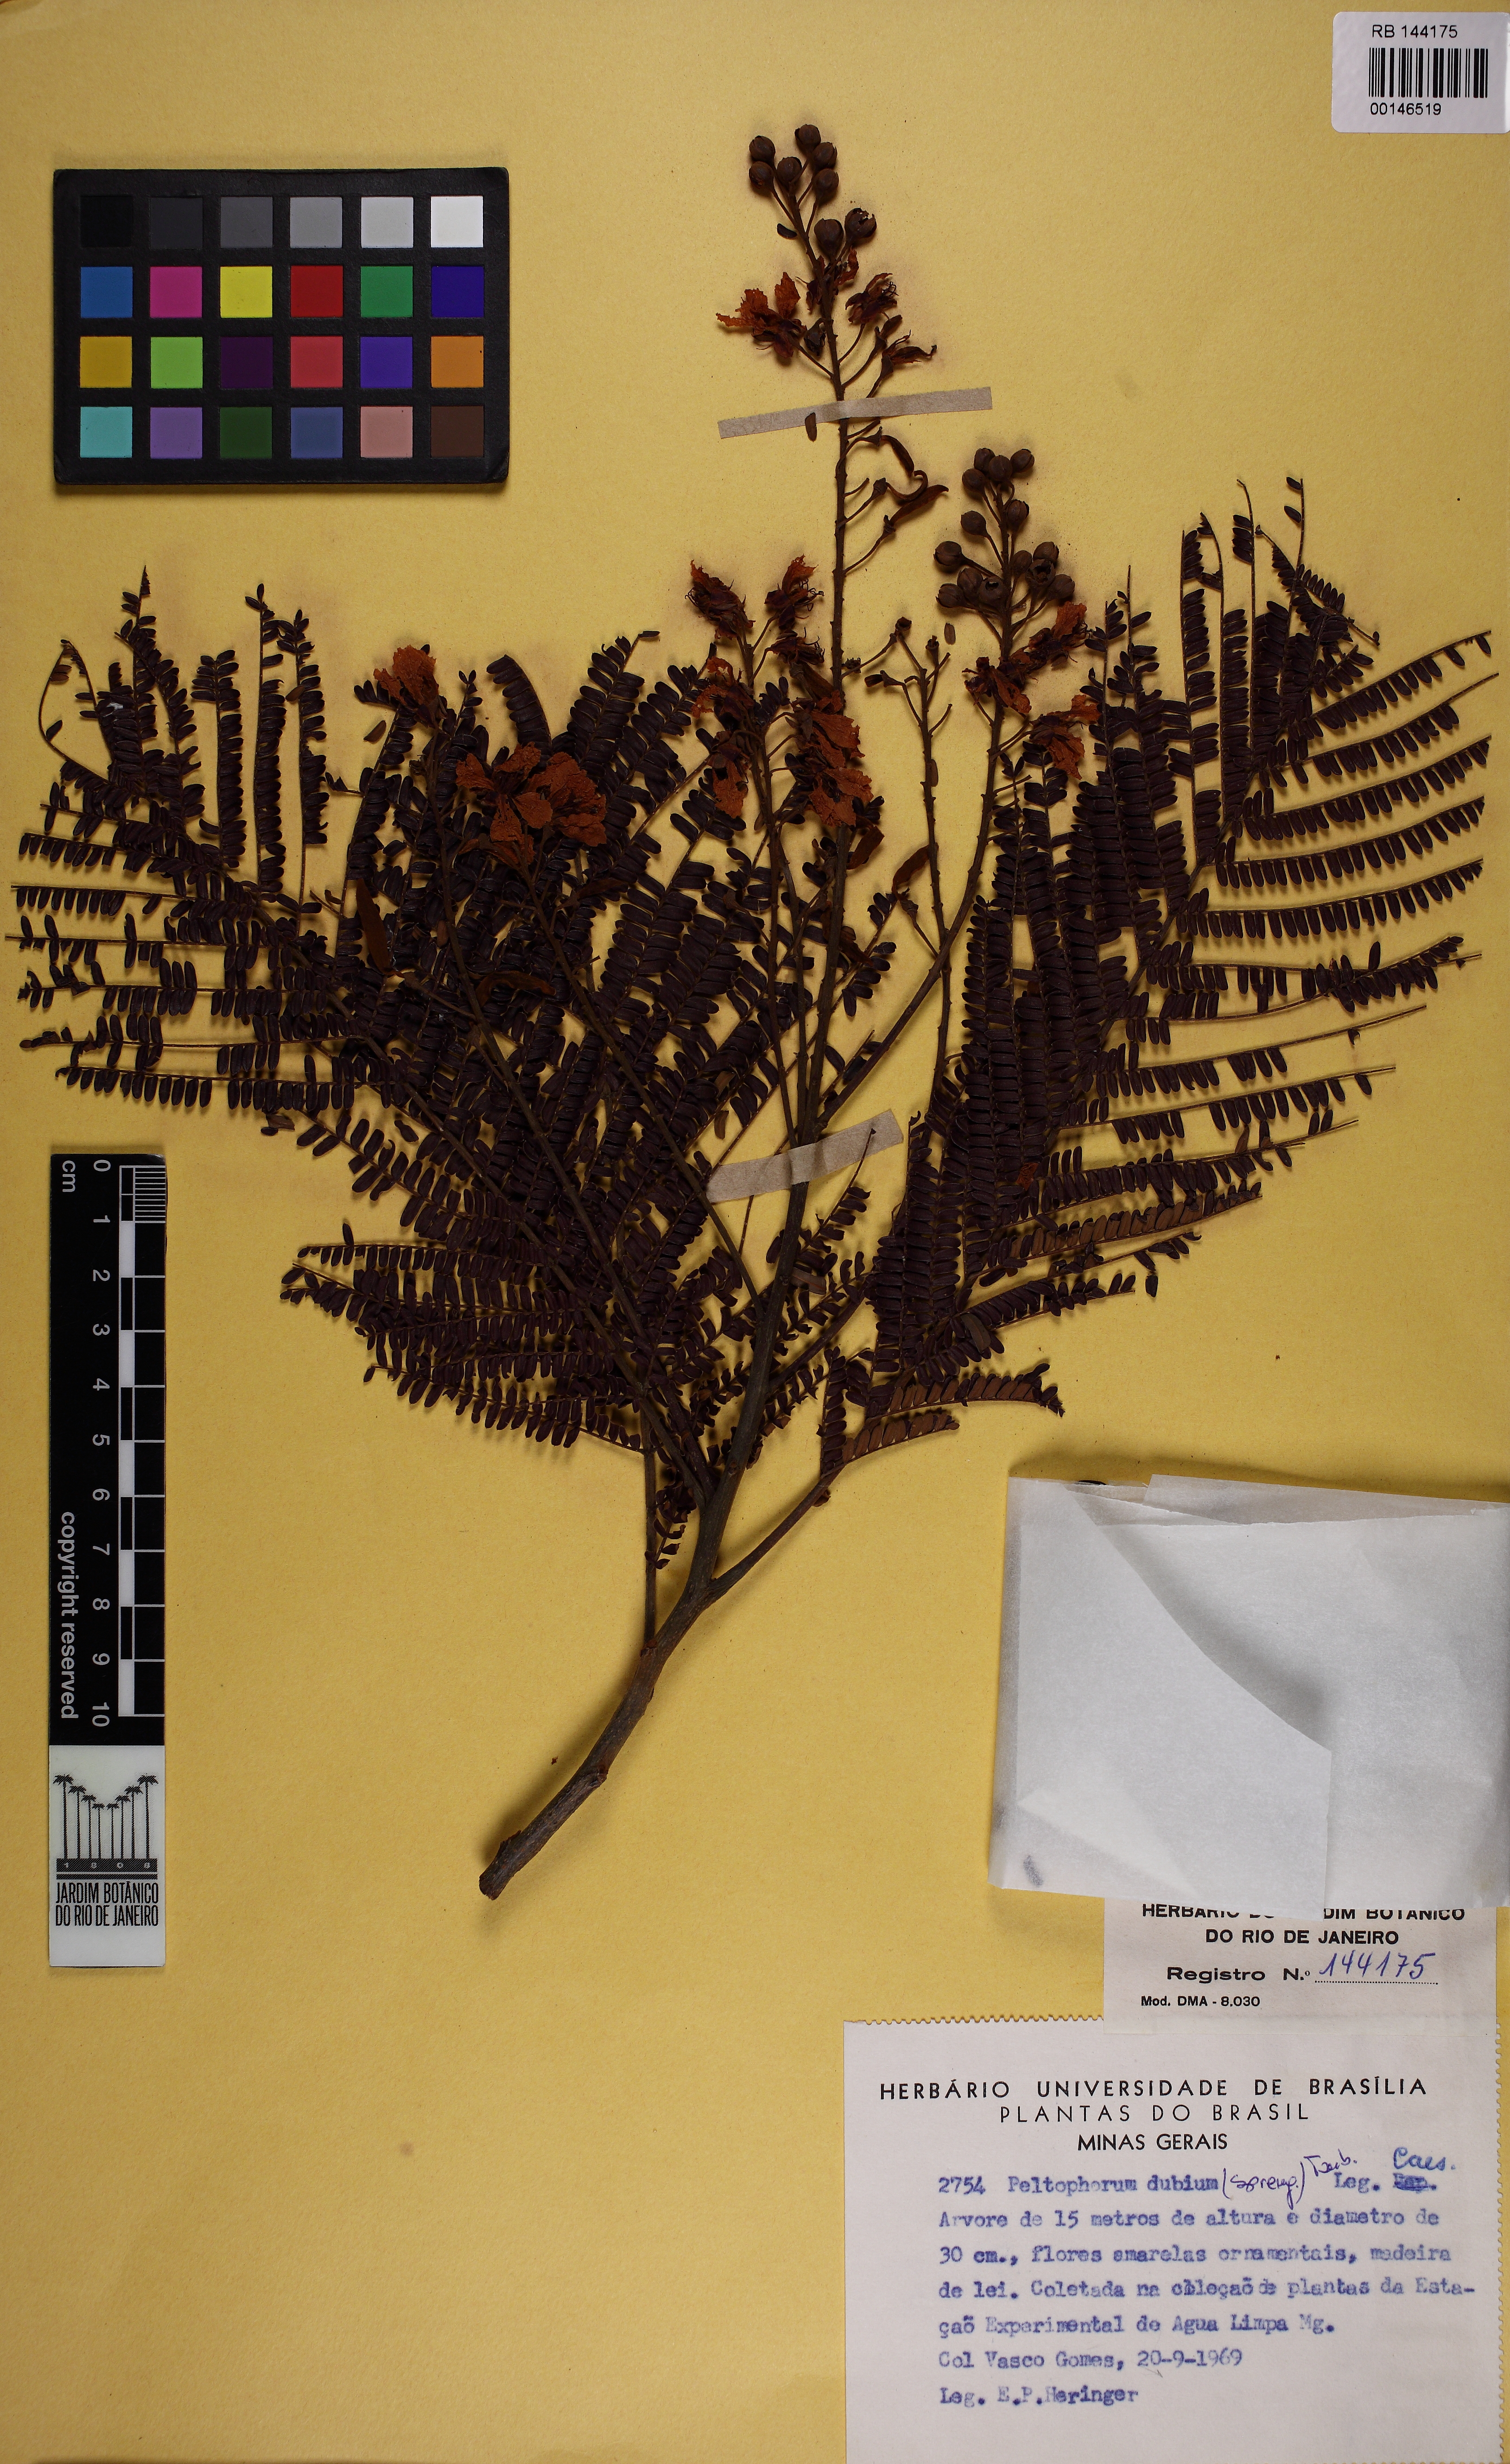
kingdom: Plantae
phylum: Tracheophyta
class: Magnoliopsida
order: Fabales
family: Fabaceae
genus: Peltophorum
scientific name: Peltophorum dubium
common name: Horsebush
